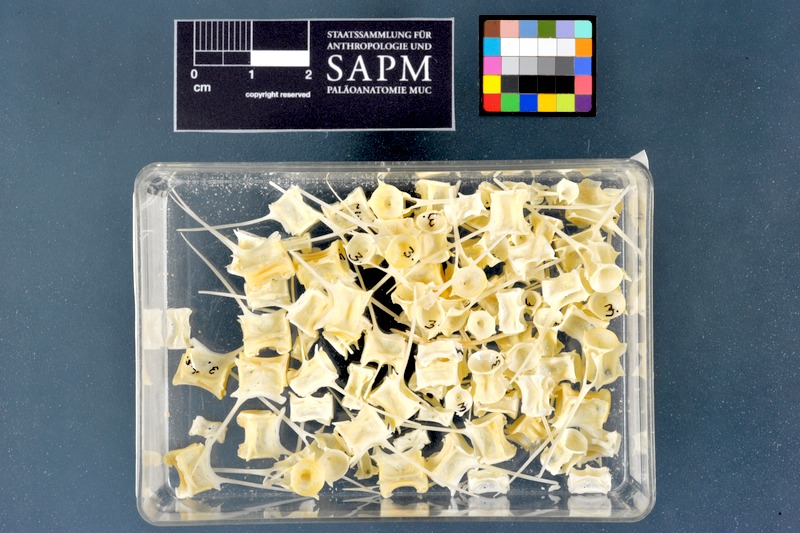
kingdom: Animalia
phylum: Chordata
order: Perciformes
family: Trichiuridae
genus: Lepidopus
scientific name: Lepidopus caudatus
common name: Silver scabbardfish
